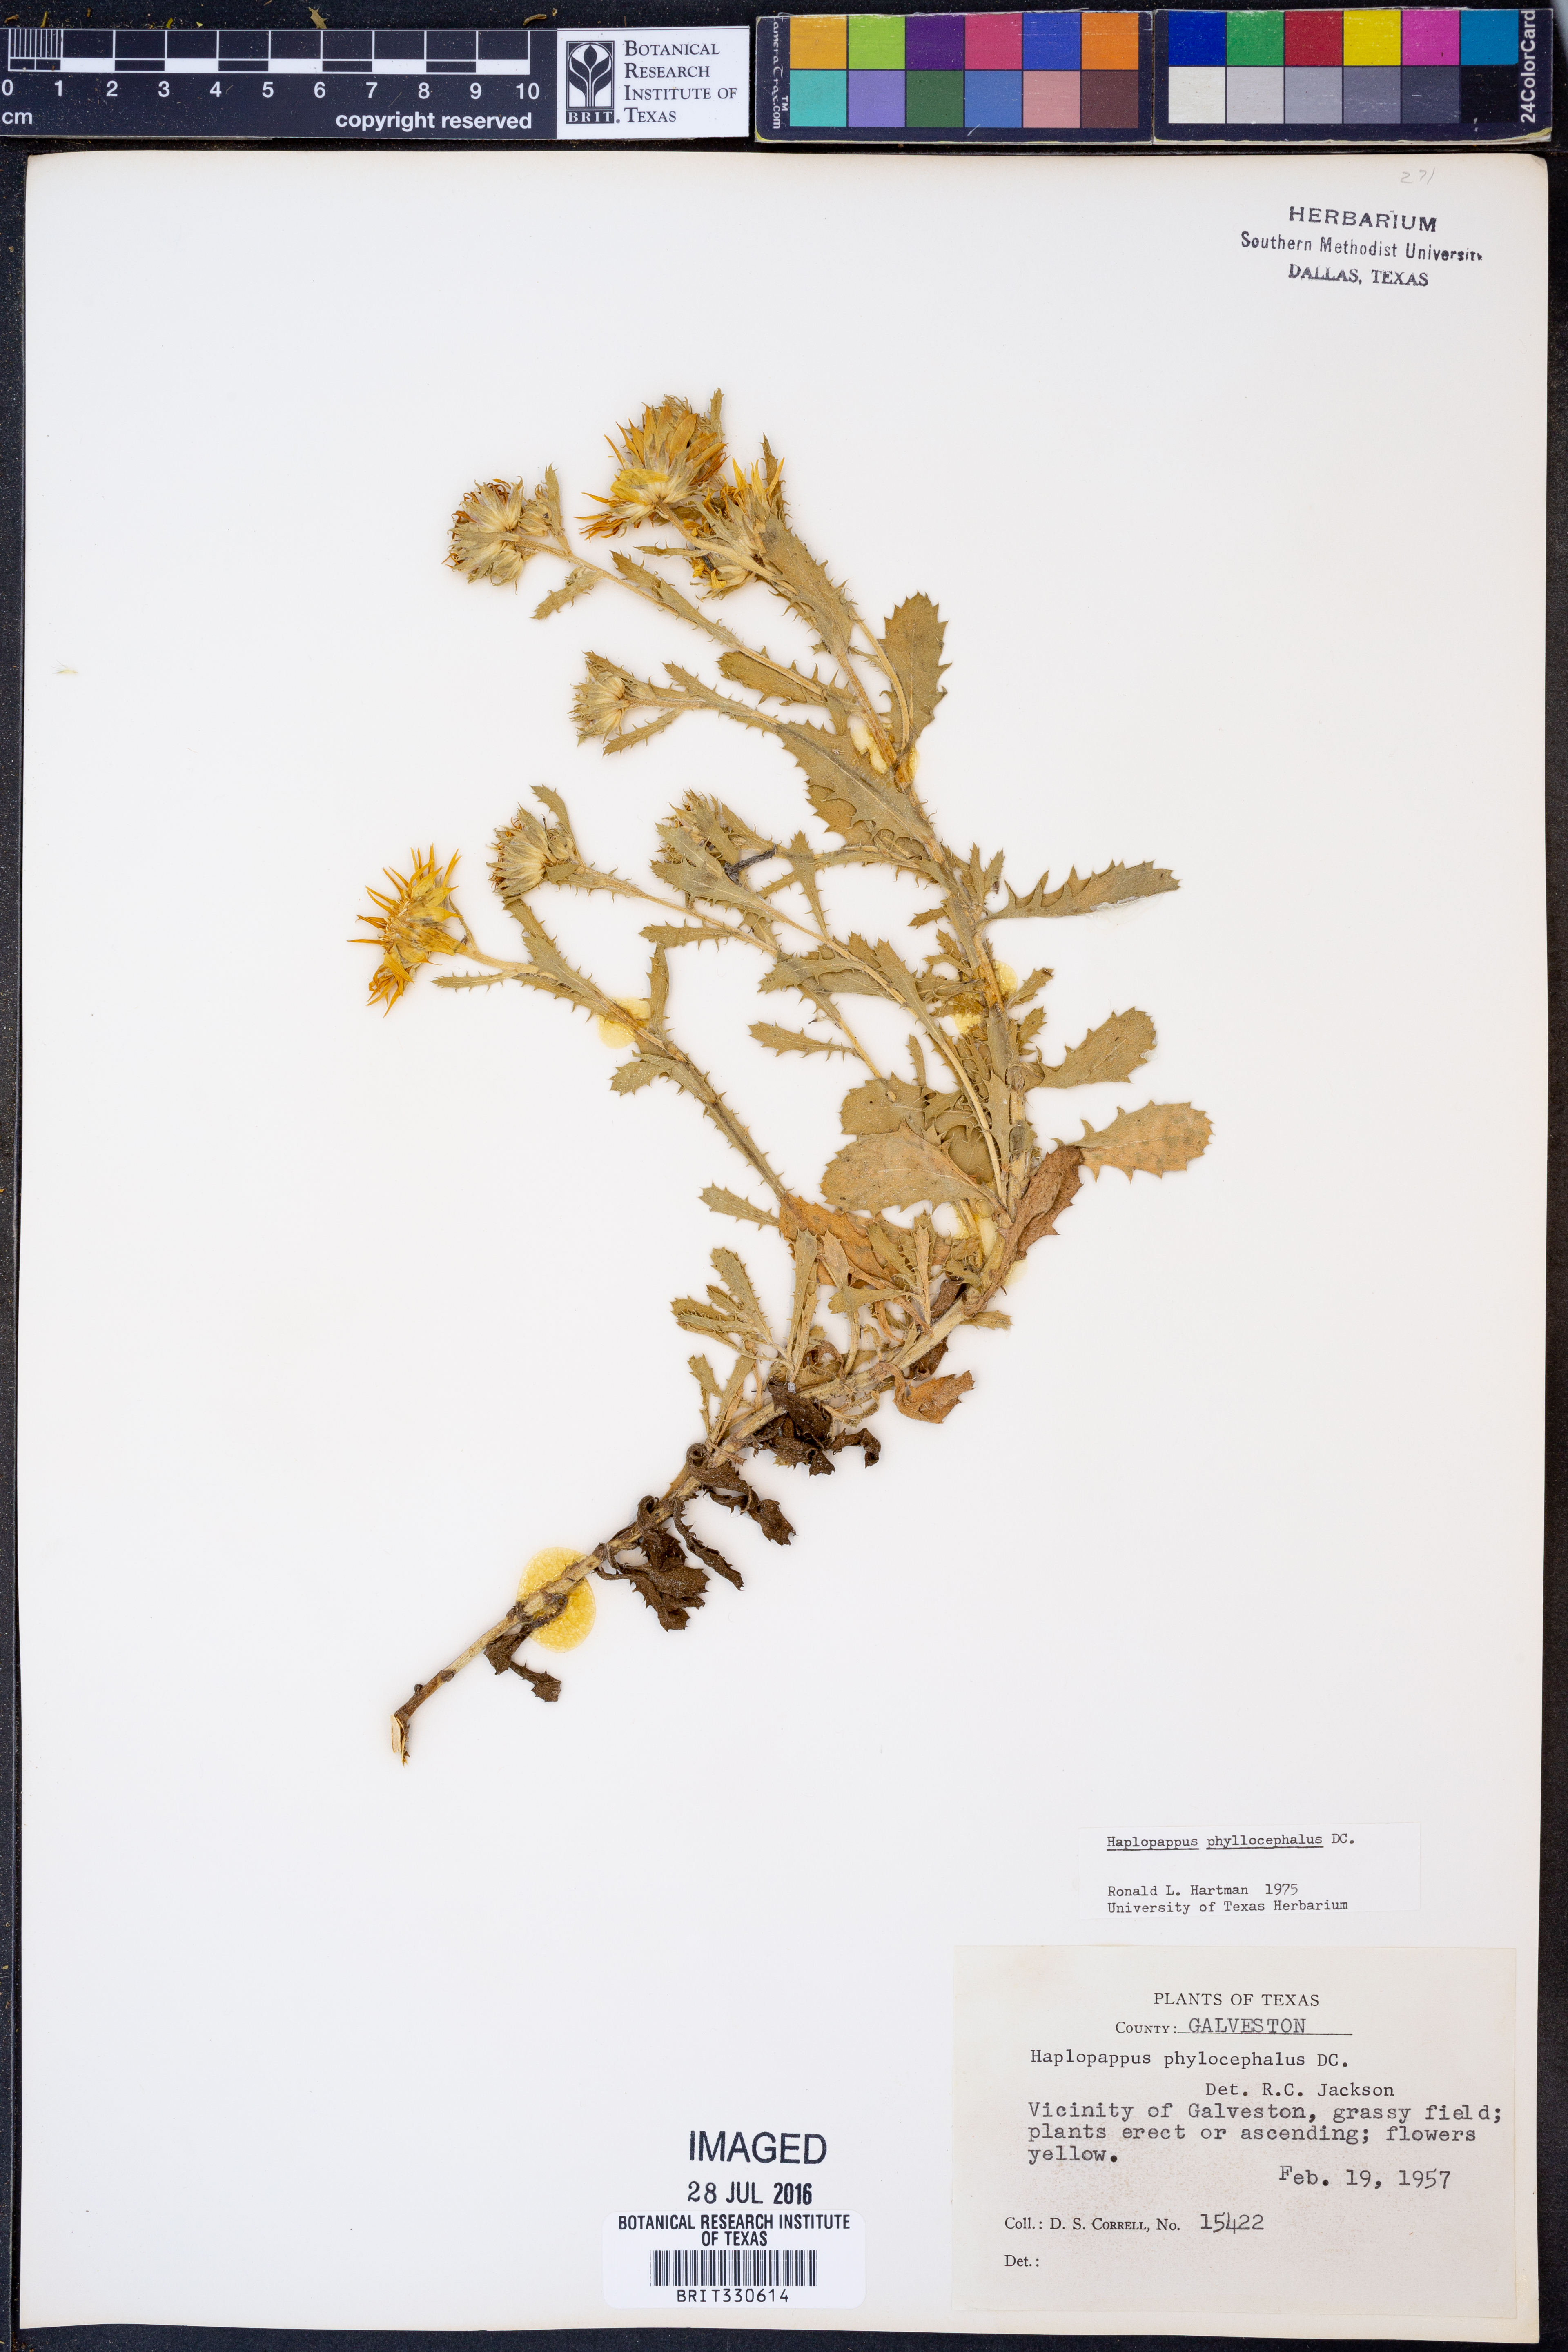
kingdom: Plantae
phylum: Tracheophyta
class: Magnoliopsida
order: Asterales
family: Asteraceae
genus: Rayjacksonia
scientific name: Rayjacksonia phyllocephala
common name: Gulf coast camphor daisy
